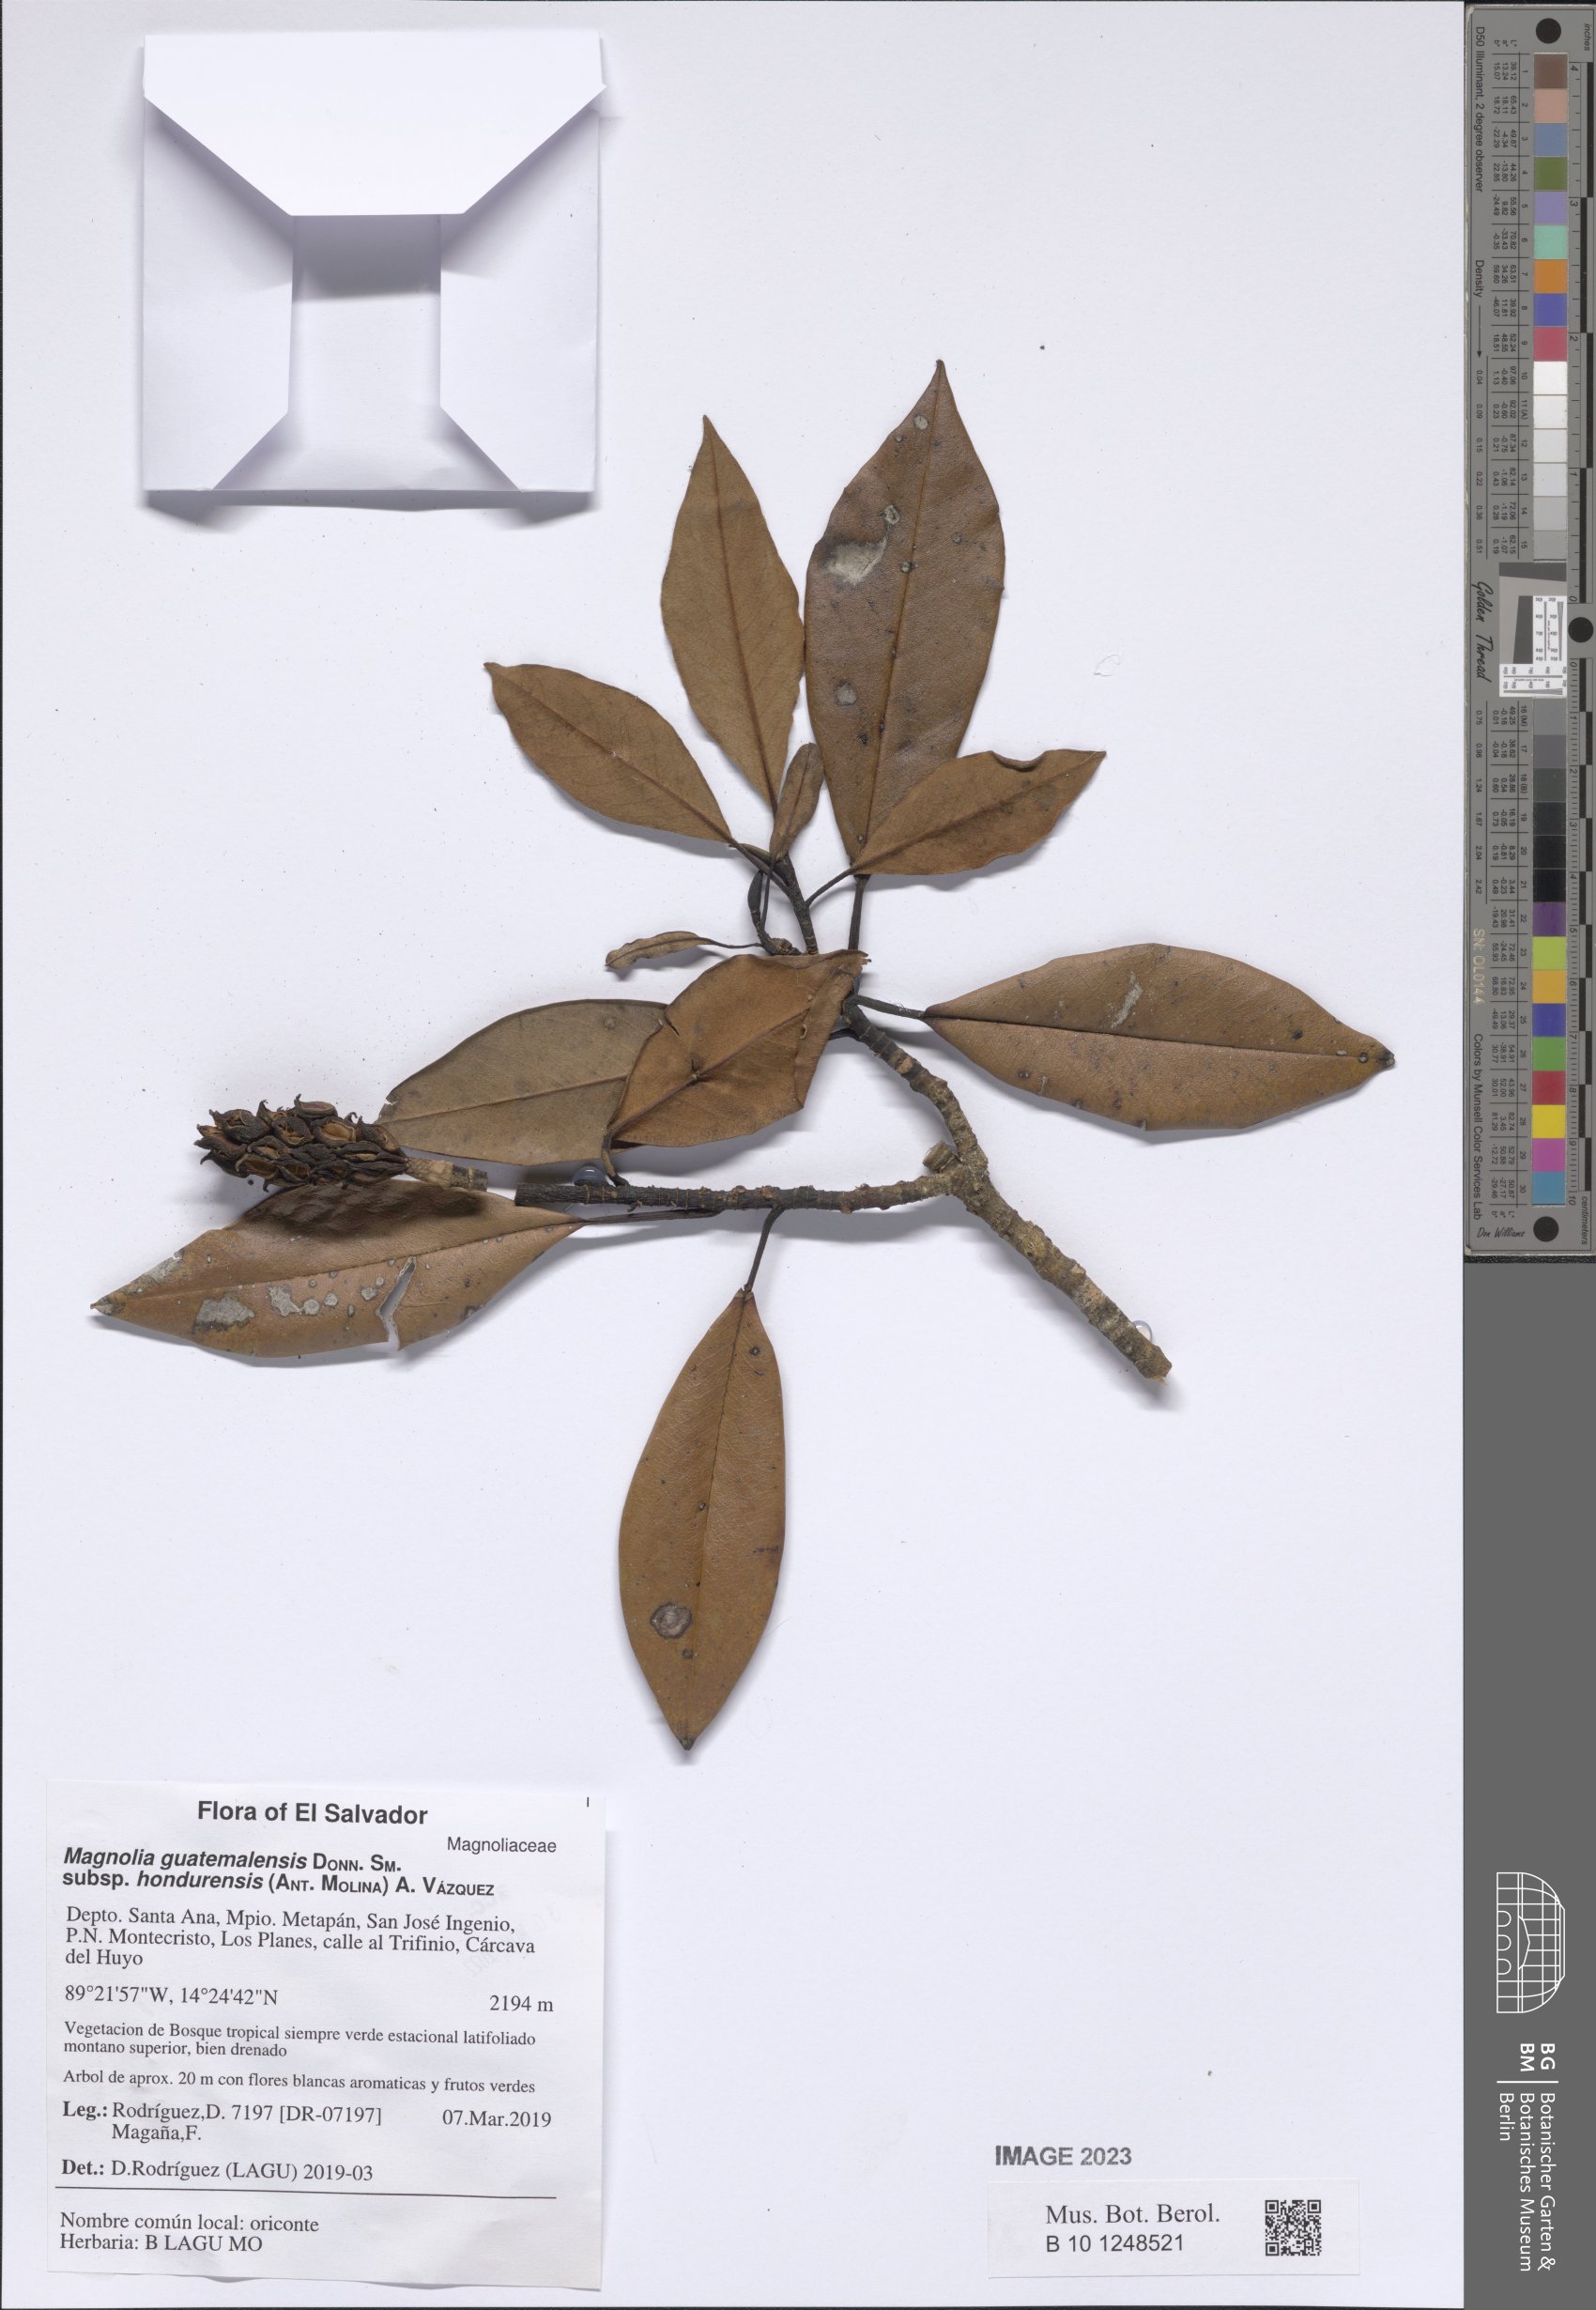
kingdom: Plantae
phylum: Tracheophyta
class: Magnoliopsida
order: Magnoliales
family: Magnoliaceae
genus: Magnolia
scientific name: Magnolia hondurensis
